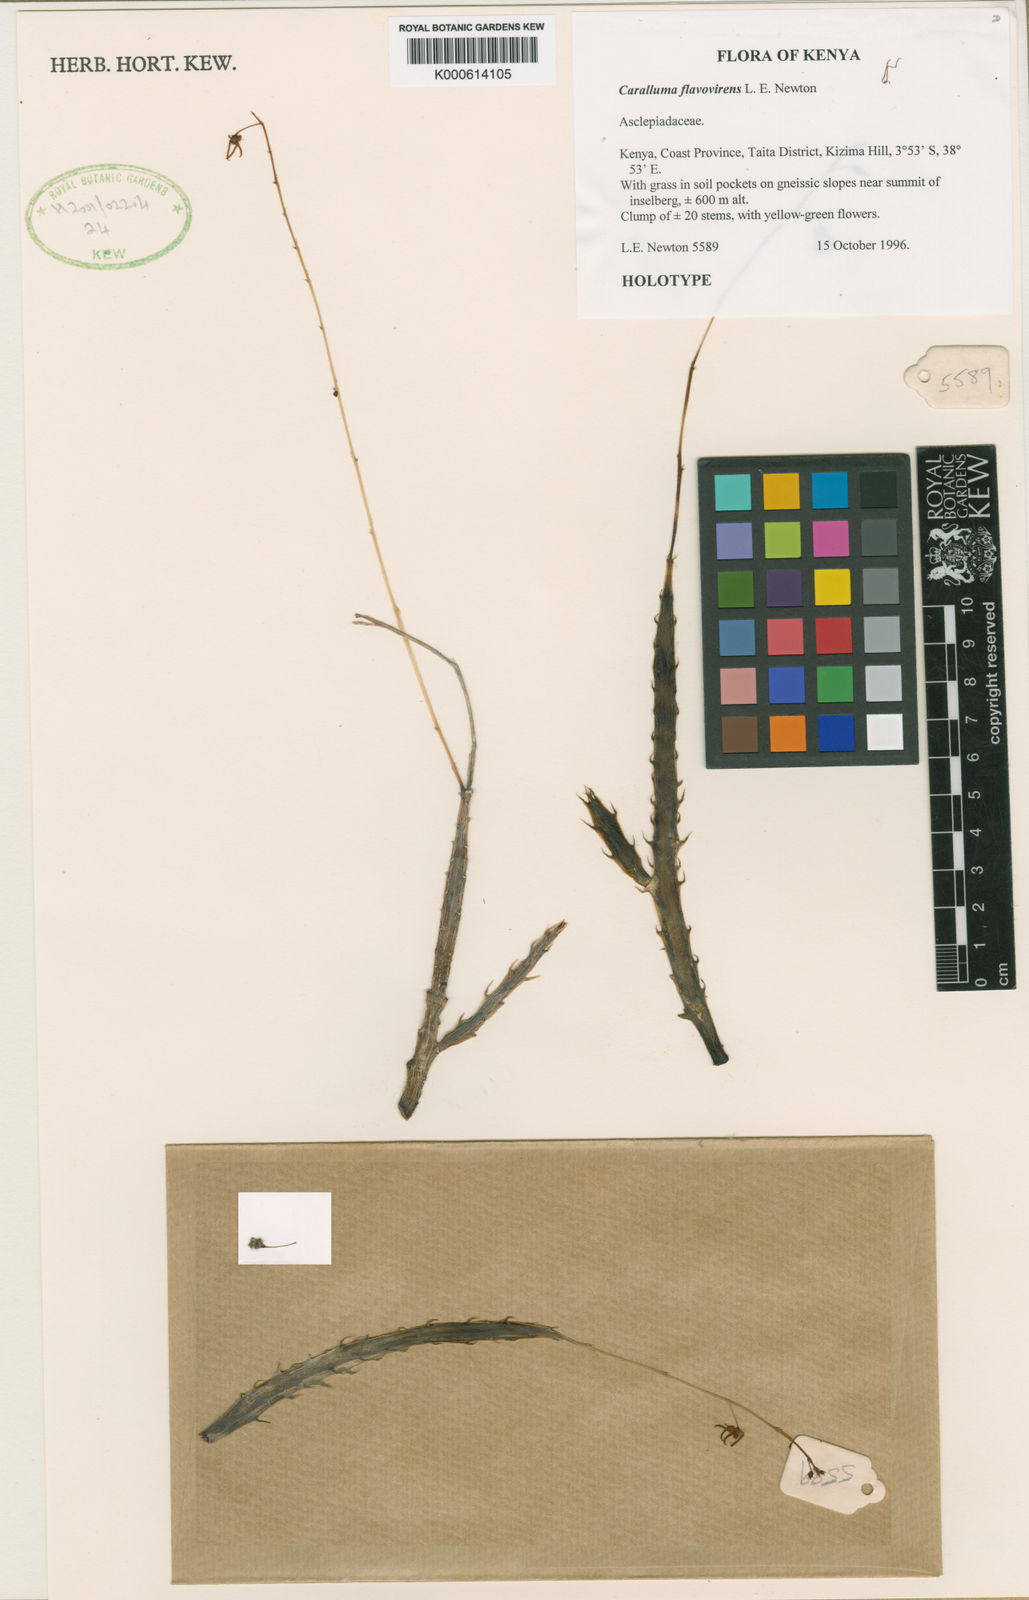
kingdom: Plantae
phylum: Tracheophyta
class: Magnoliopsida
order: Gentianales
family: Apocynaceae
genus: Ceropegia
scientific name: Ceropegia arachnoidea
